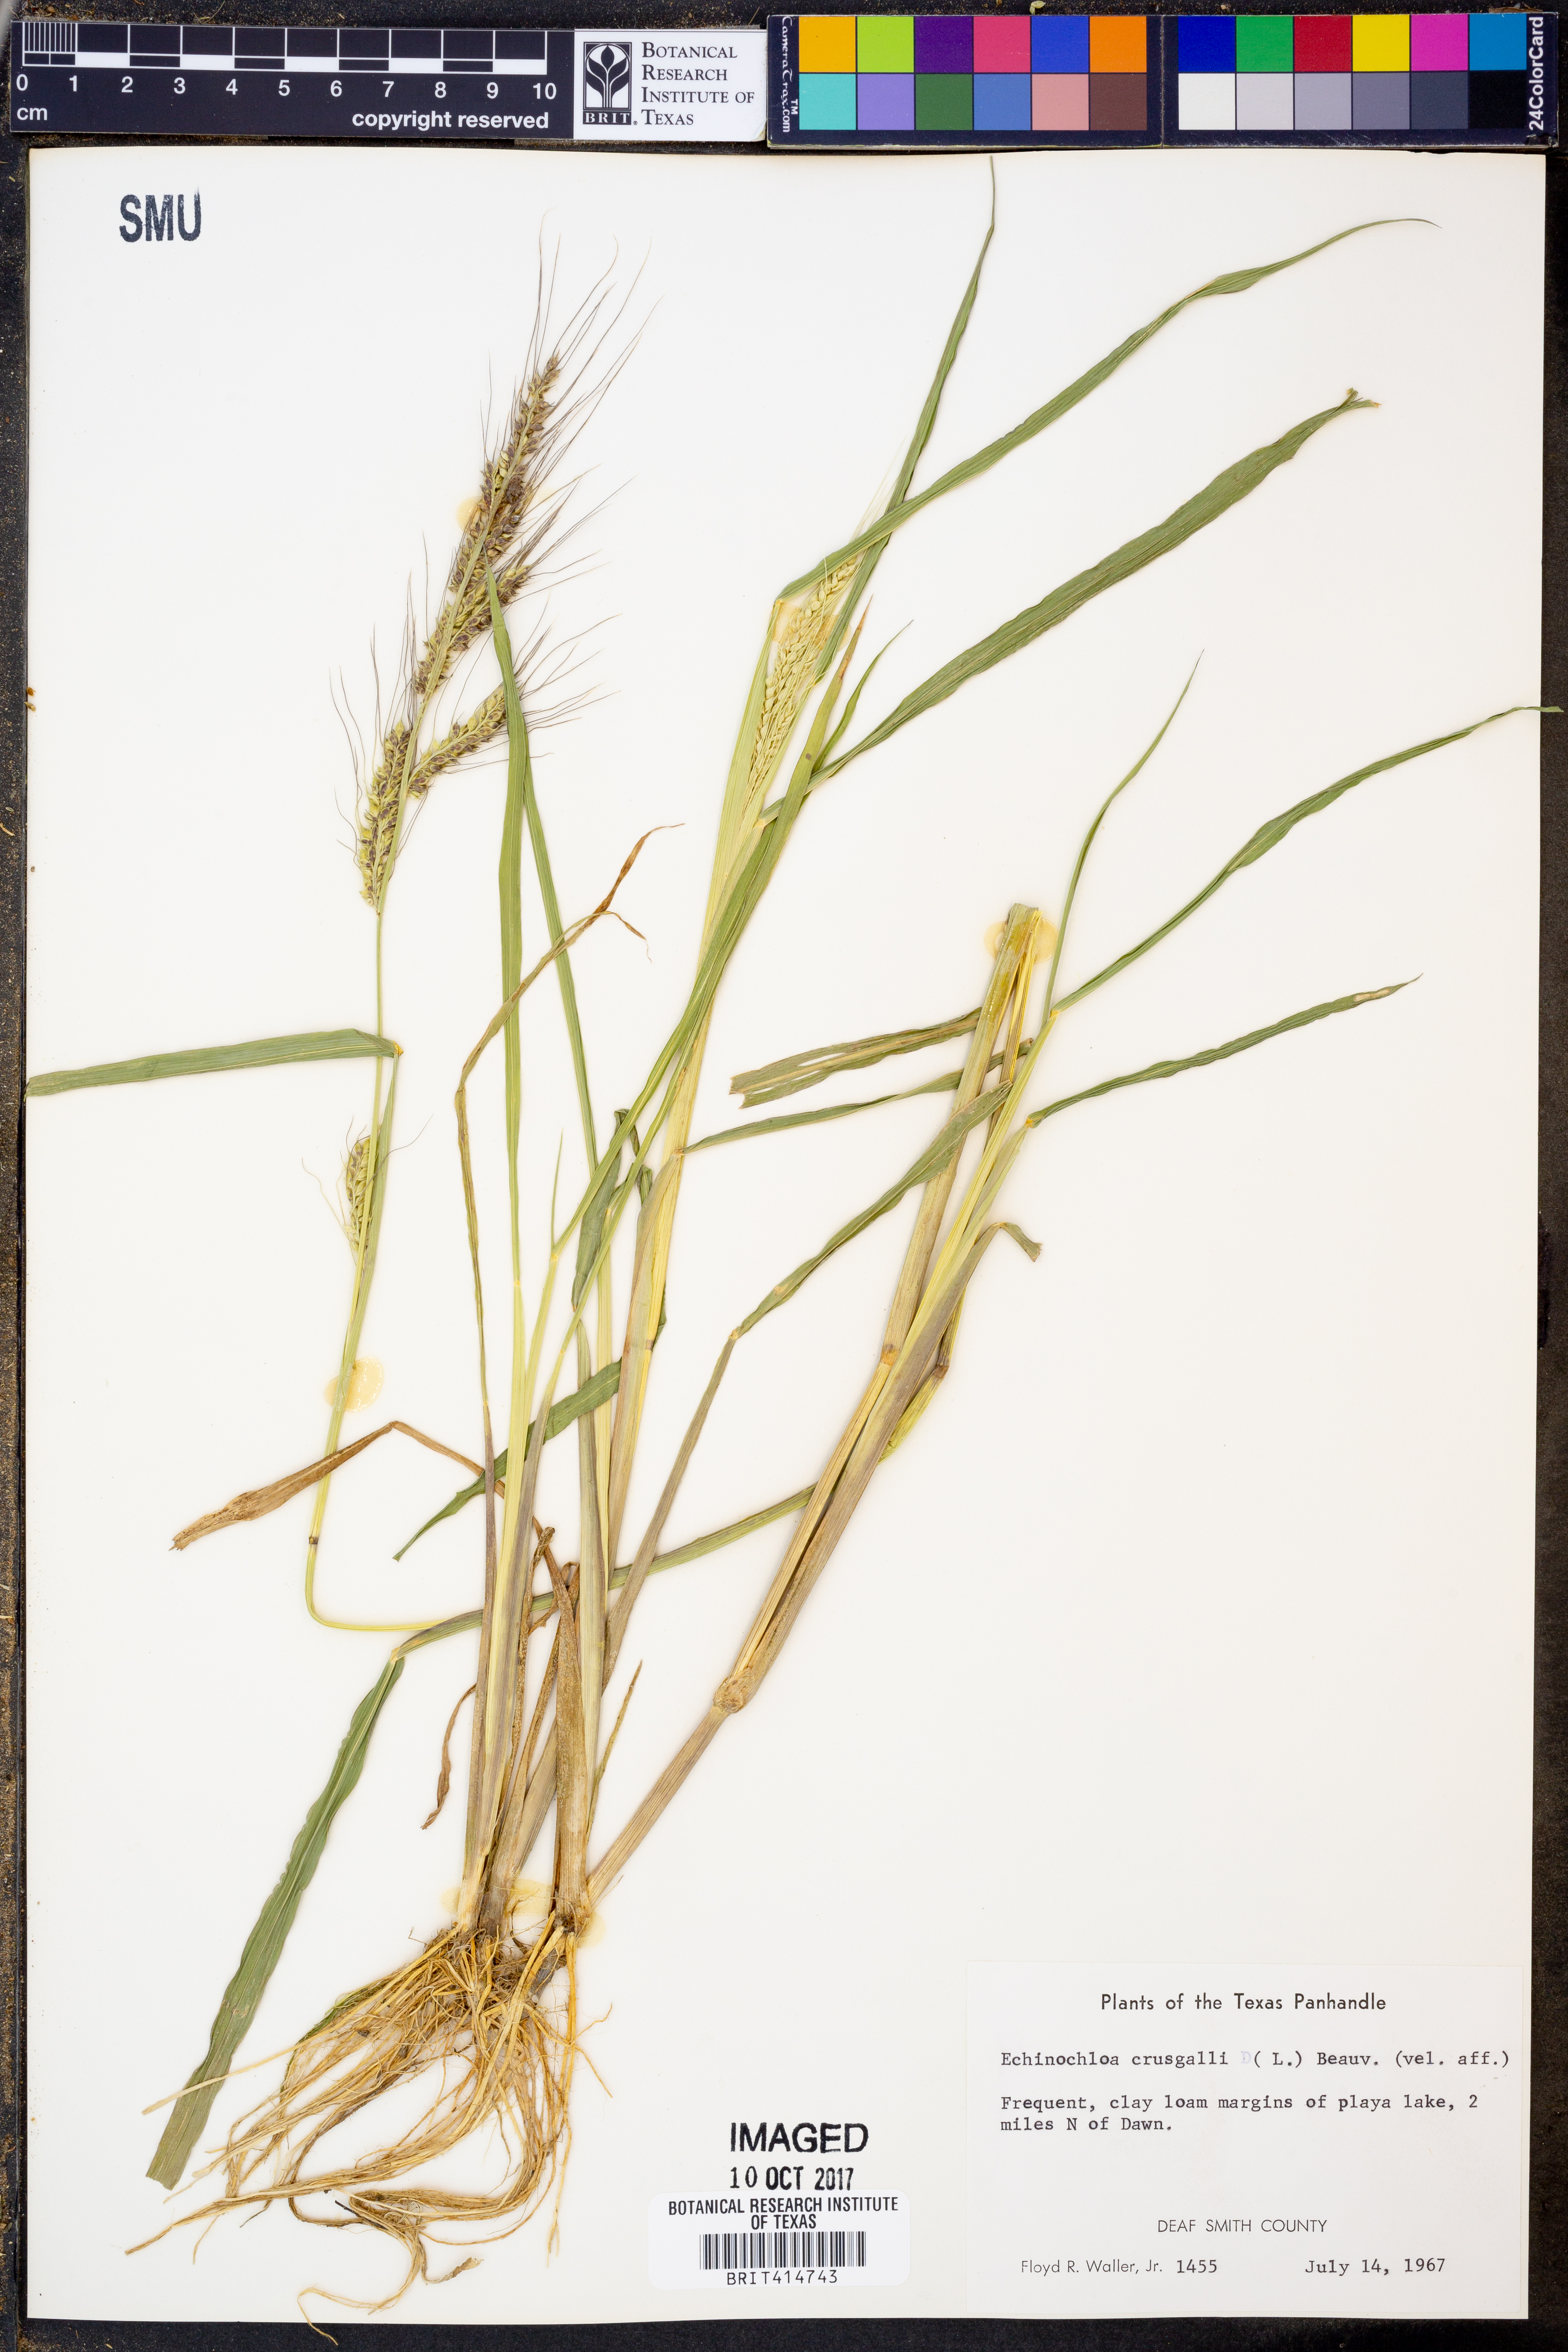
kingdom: Plantae
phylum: Tracheophyta
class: Liliopsida
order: Poales
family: Poaceae
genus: Echinochloa
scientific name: Echinochloa
